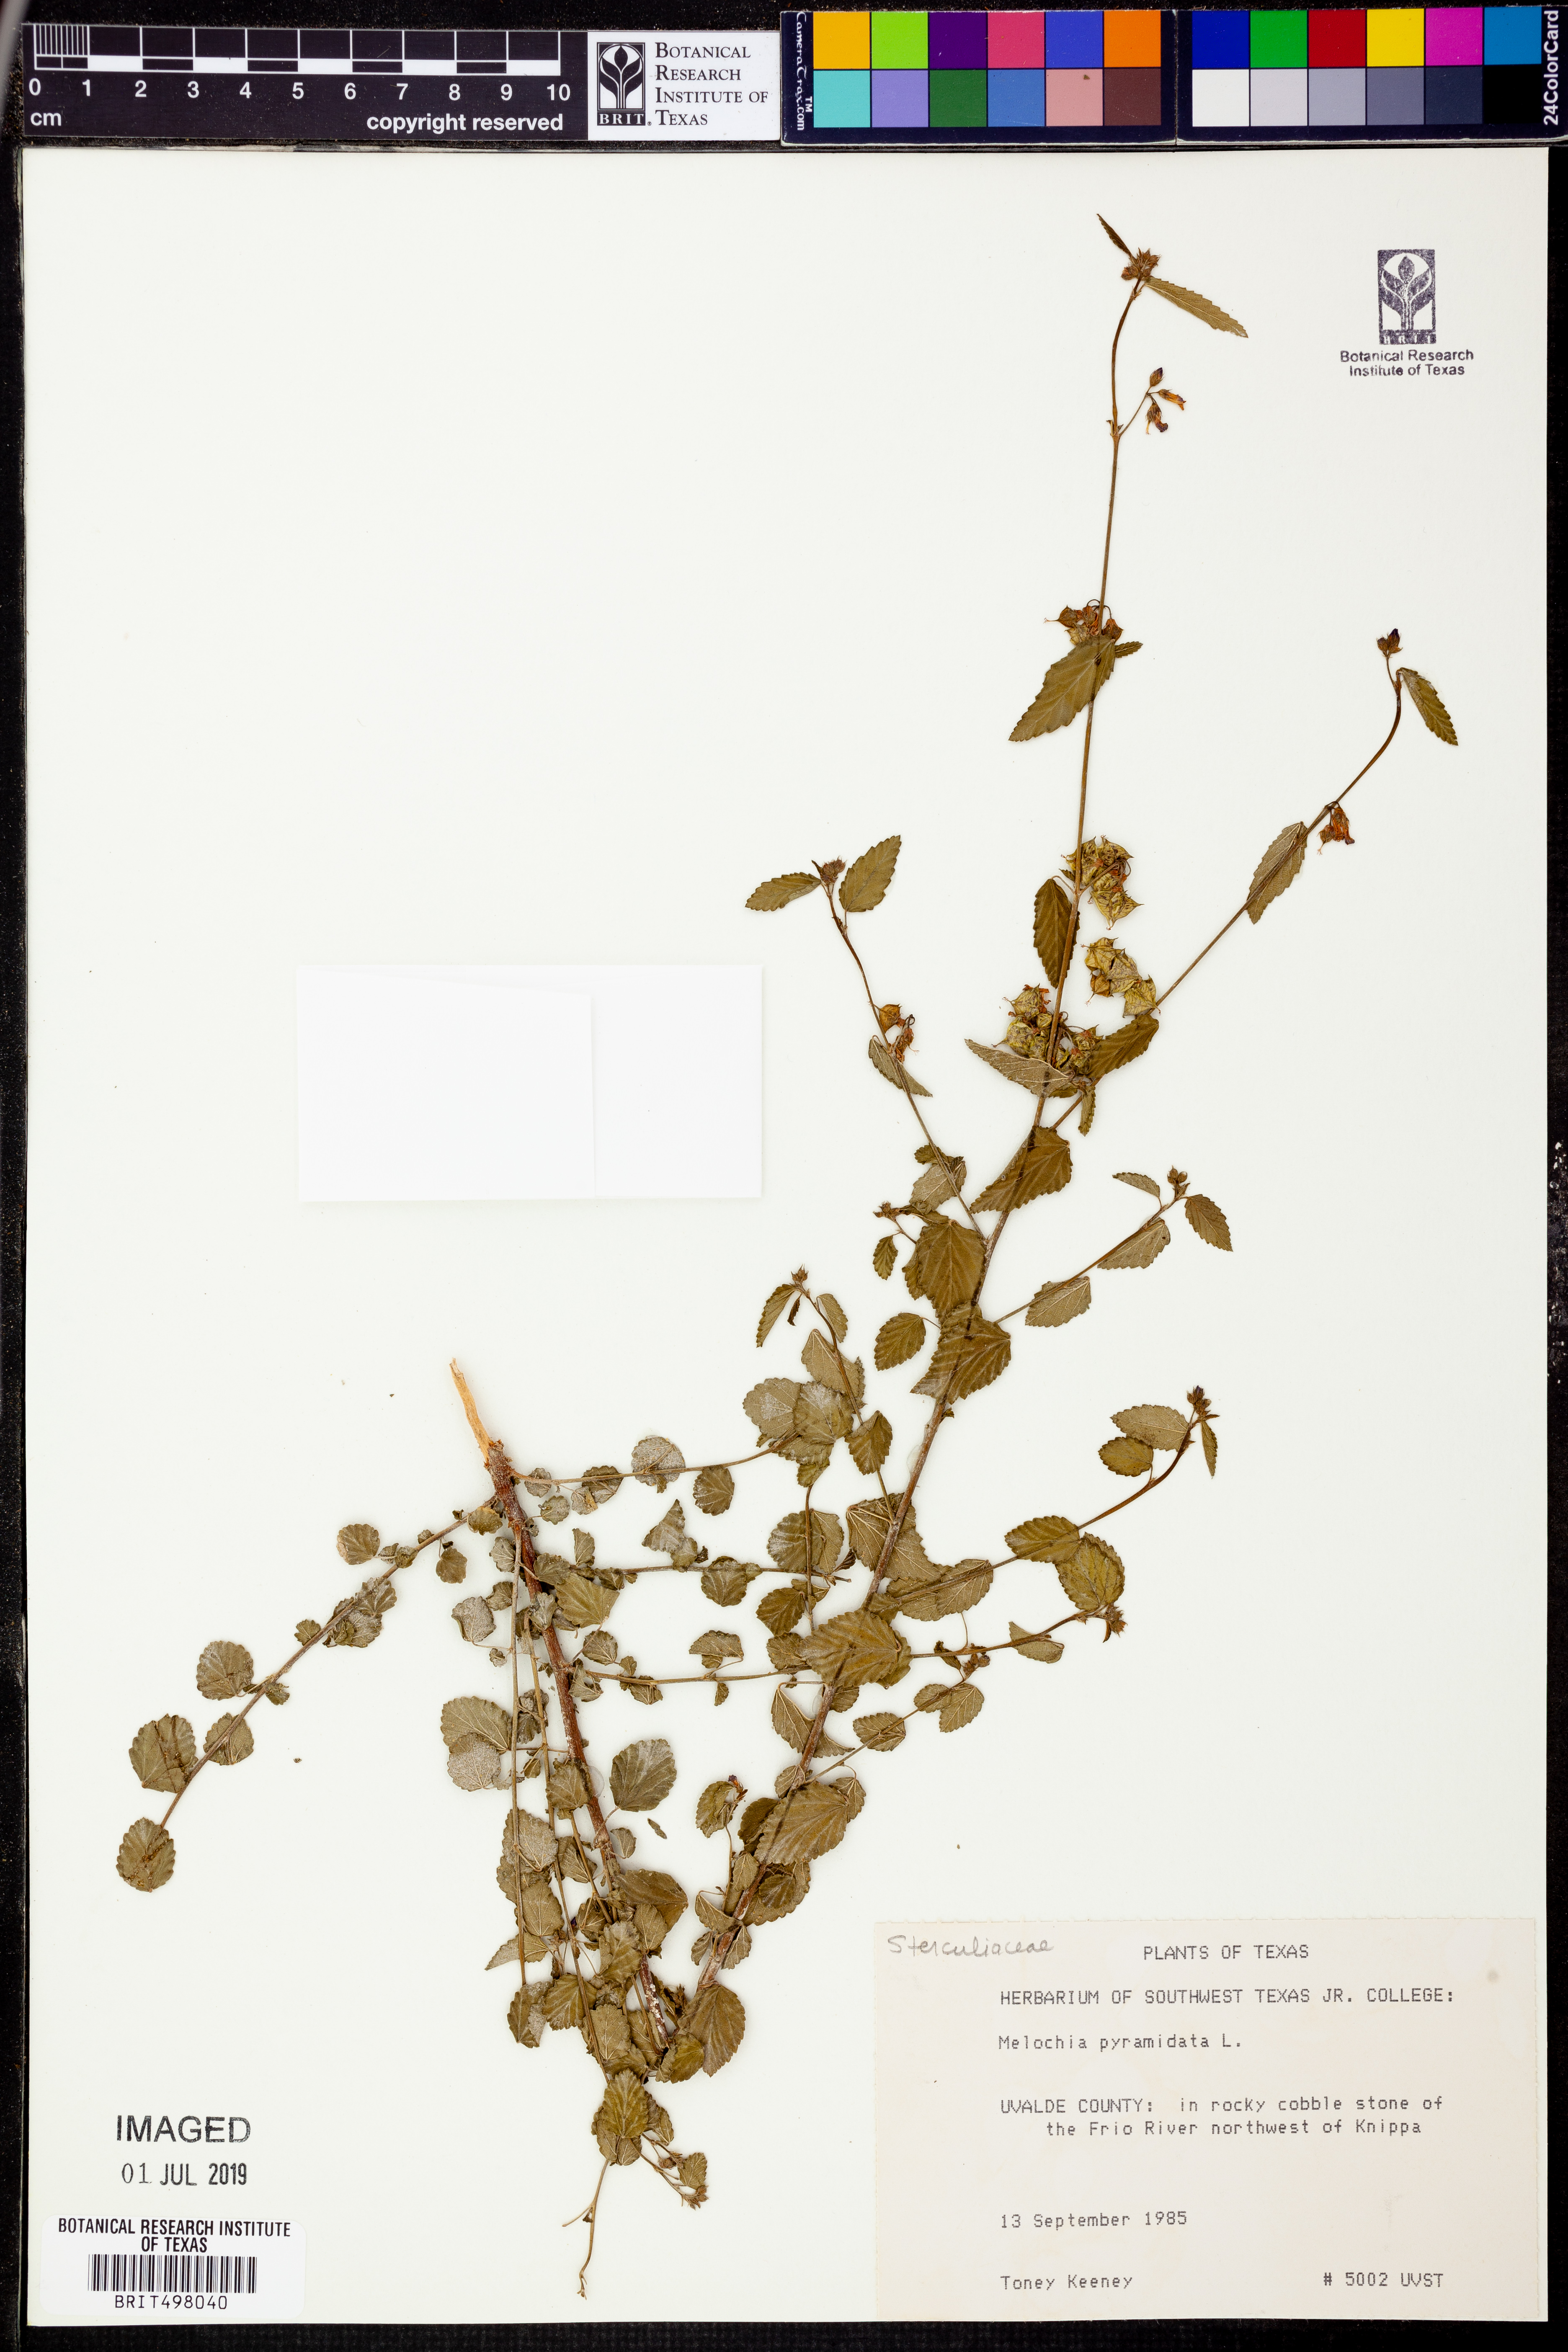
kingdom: Plantae
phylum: Tracheophyta
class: Magnoliopsida
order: Malvales
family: Malvaceae
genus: Melochia
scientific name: Melochia pyramidata
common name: Pyramidflower
